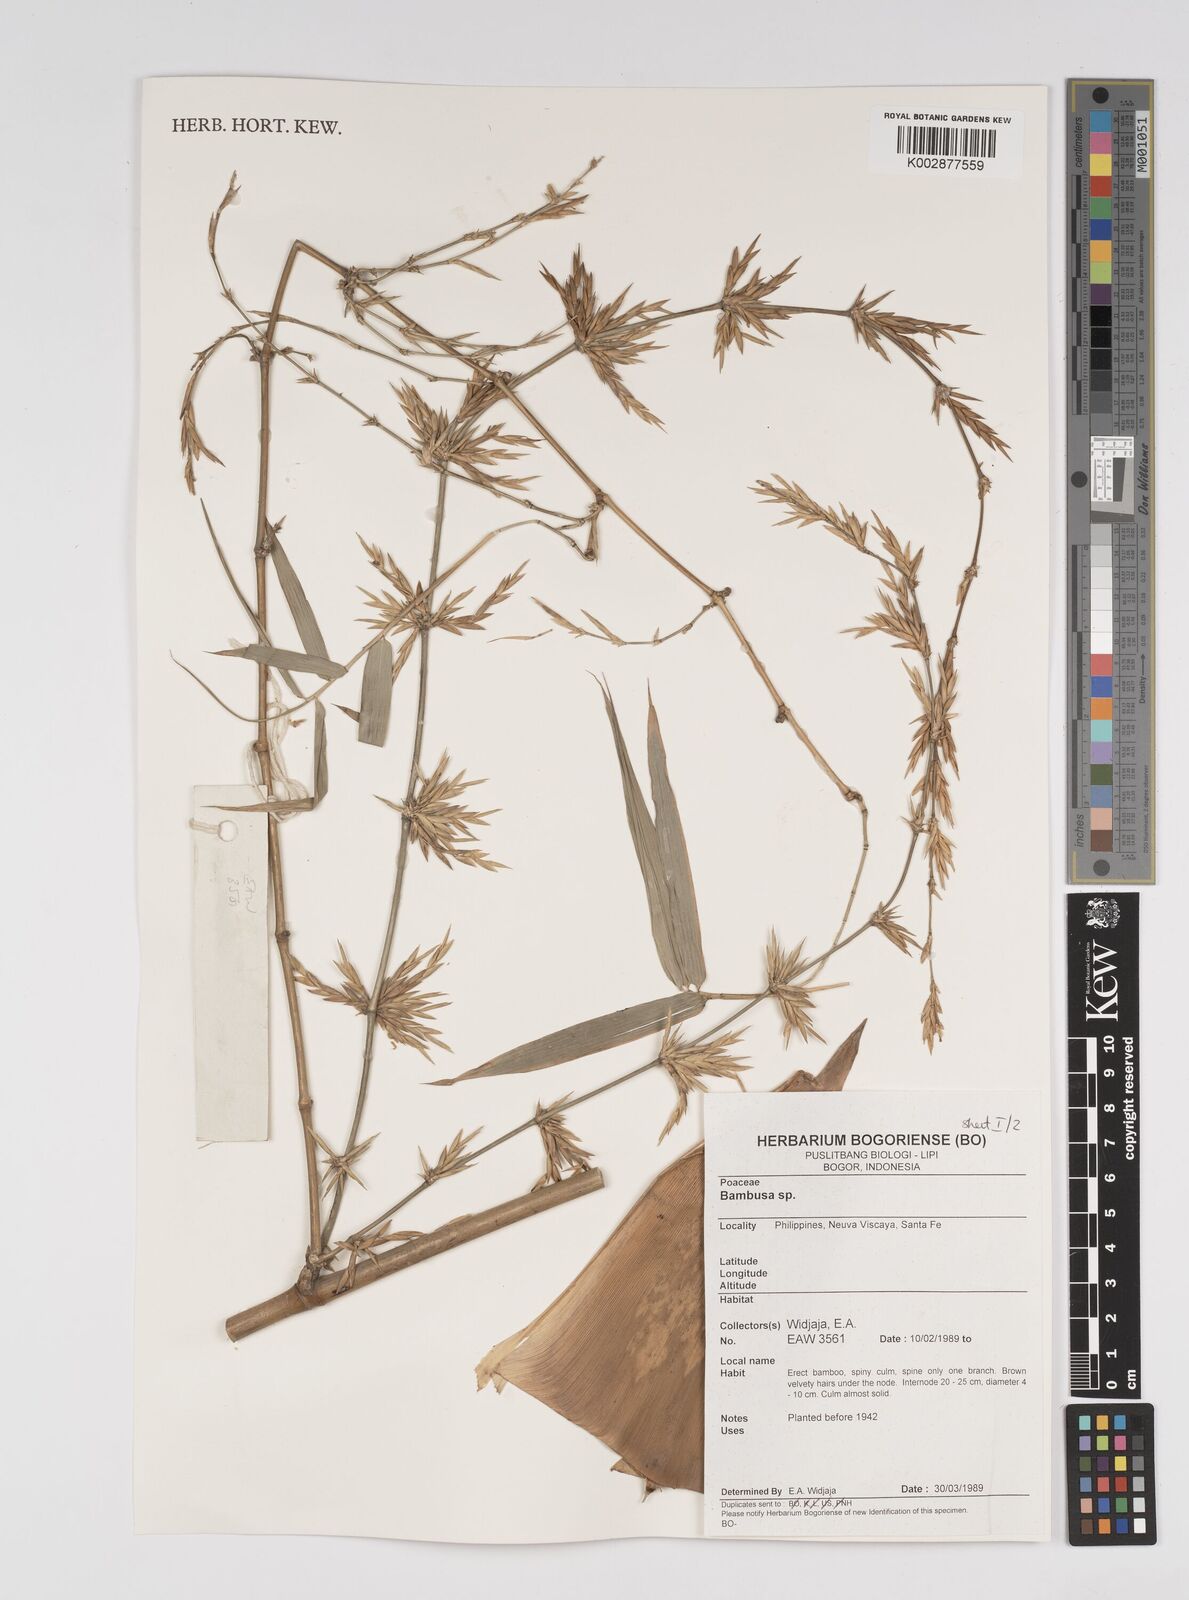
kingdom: Plantae
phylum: Tracheophyta
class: Liliopsida
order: Poales
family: Poaceae
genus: Bambusa
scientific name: Bambusa
